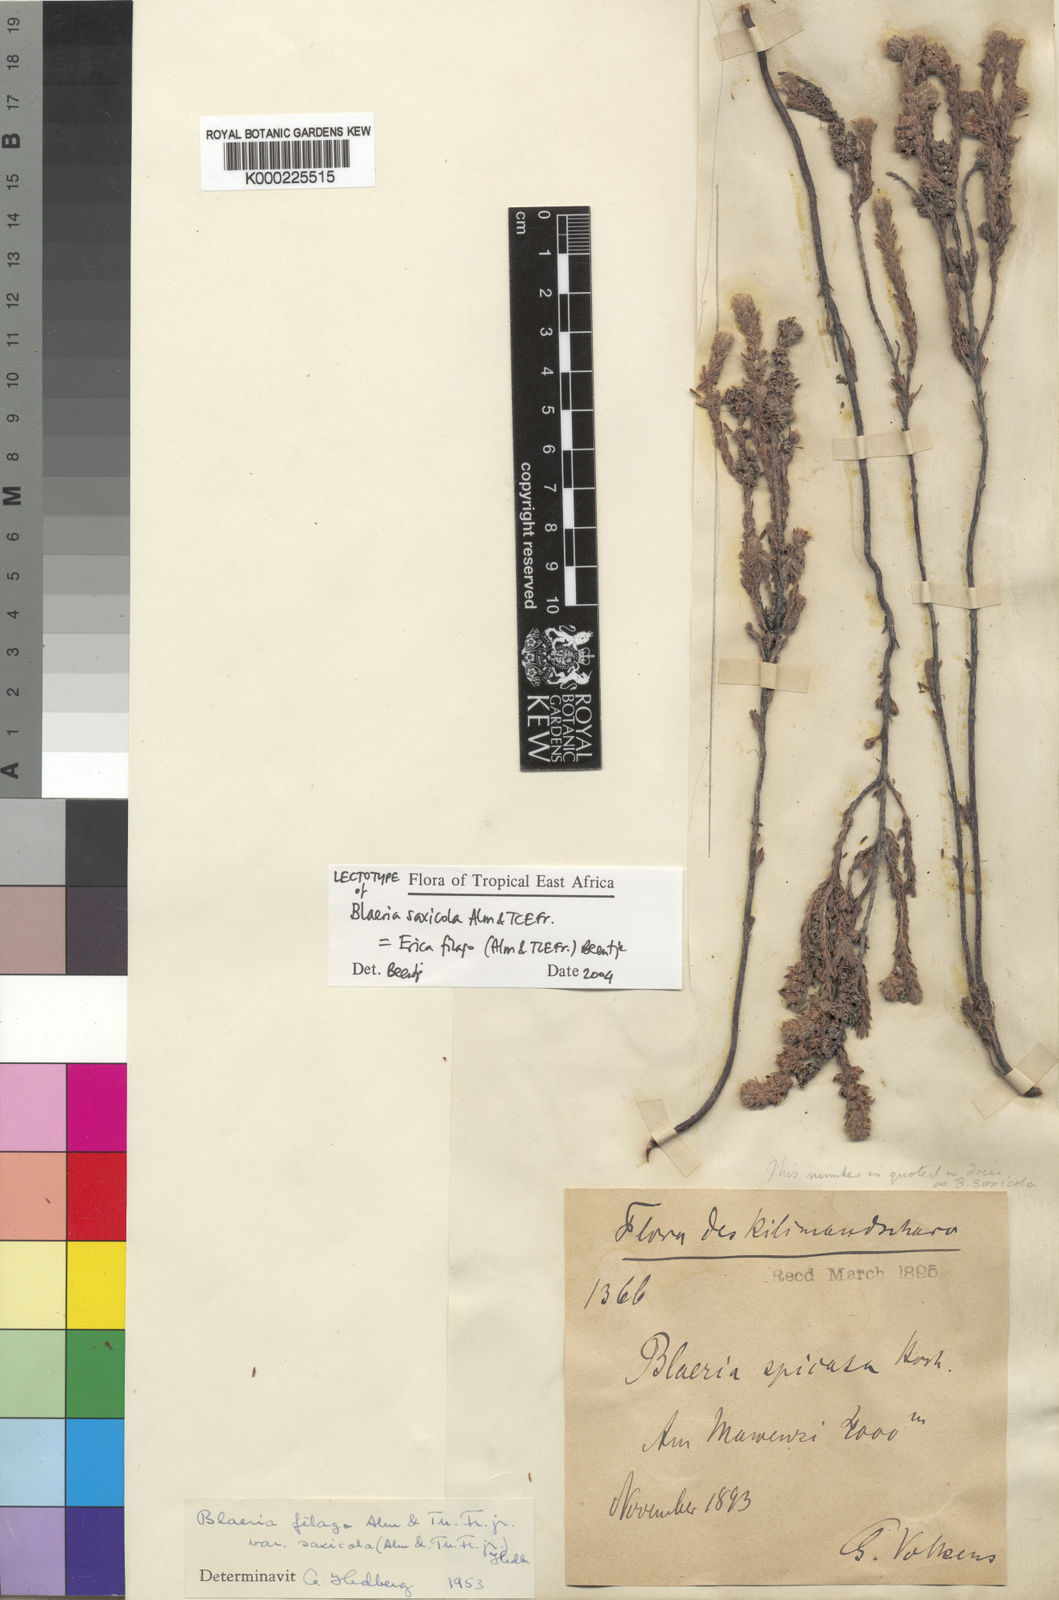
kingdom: Plantae
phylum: Tracheophyta
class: Magnoliopsida
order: Ericales
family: Ericaceae
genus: Erica
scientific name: Erica filago
